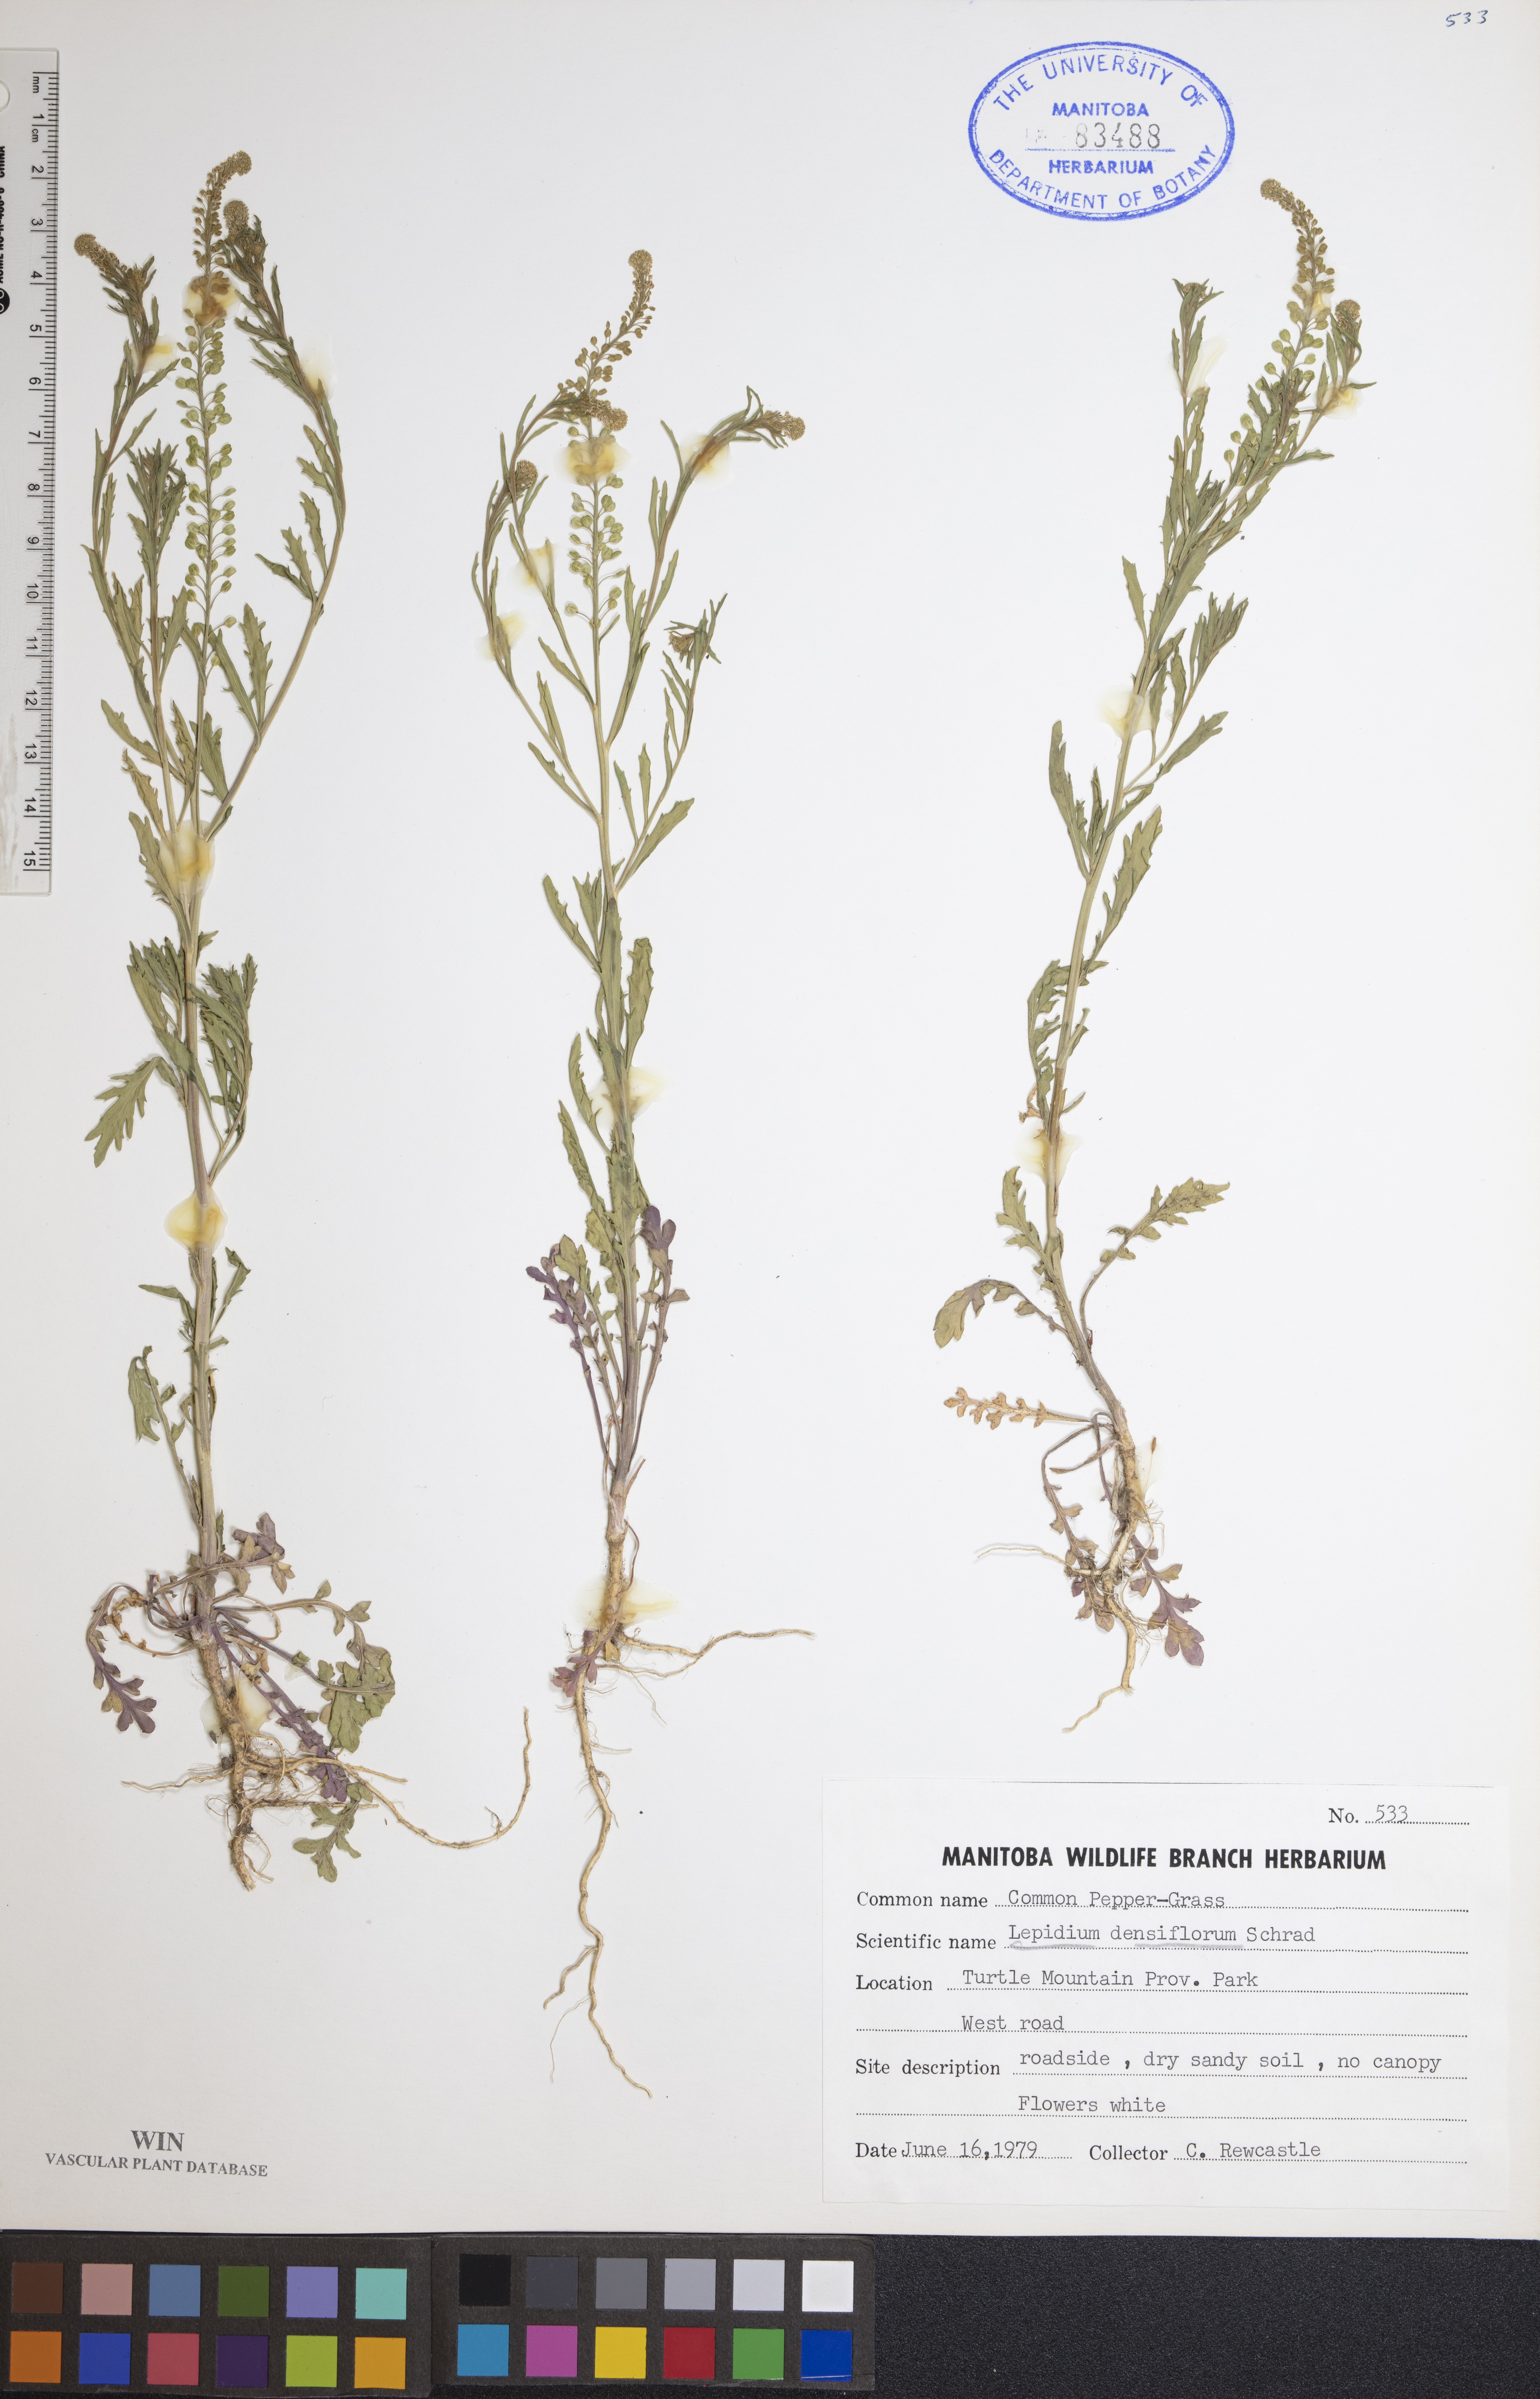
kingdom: Plantae
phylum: Tracheophyta
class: Magnoliopsida
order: Brassicales
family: Brassicaceae
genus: Lepidium
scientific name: Lepidium densiflorum
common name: Miner's pepperwort
